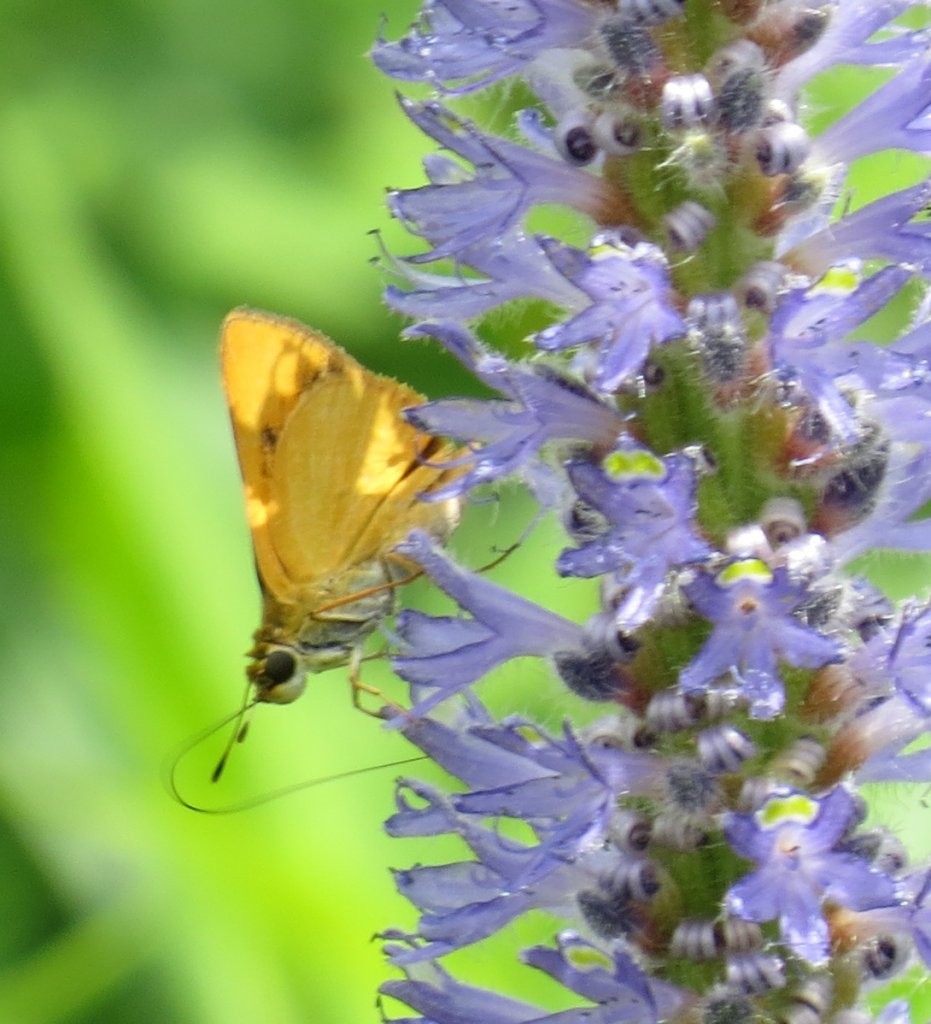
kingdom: Animalia
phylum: Arthropoda
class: Insecta
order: Lepidoptera
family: Hesperiidae
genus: Problema
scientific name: Problema bulenta
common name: Rare Skipper
